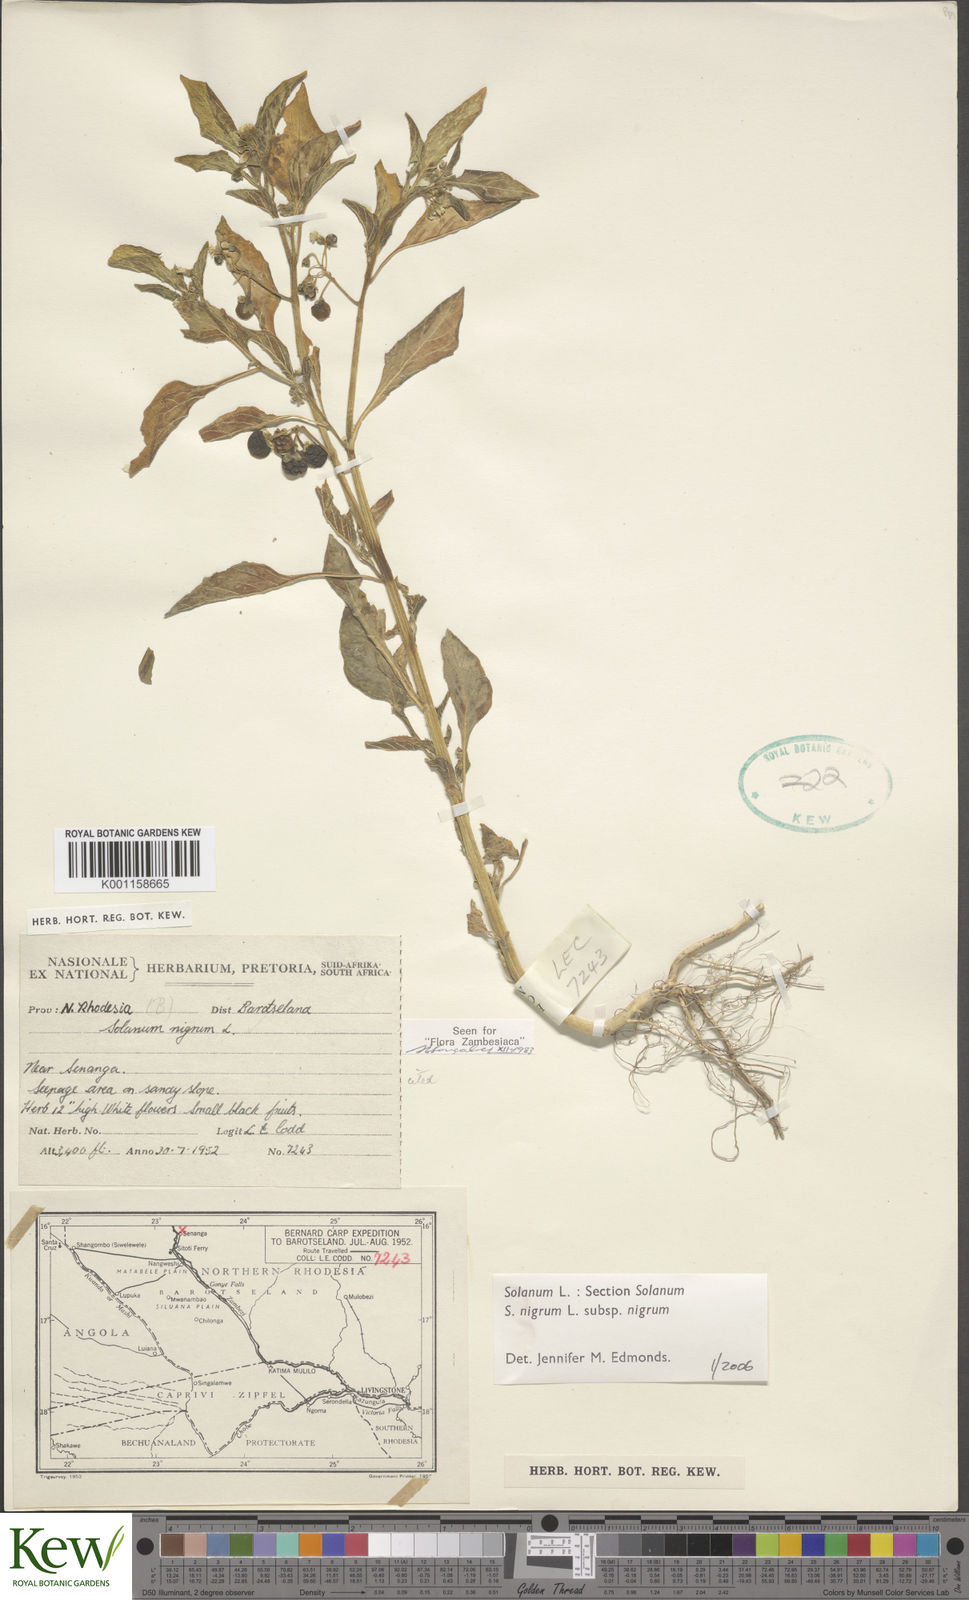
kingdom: Plantae
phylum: Tracheophyta
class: Magnoliopsida
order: Solanales
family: Solanaceae
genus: Solanum
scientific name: Solanum nigrum
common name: Black nightshade
